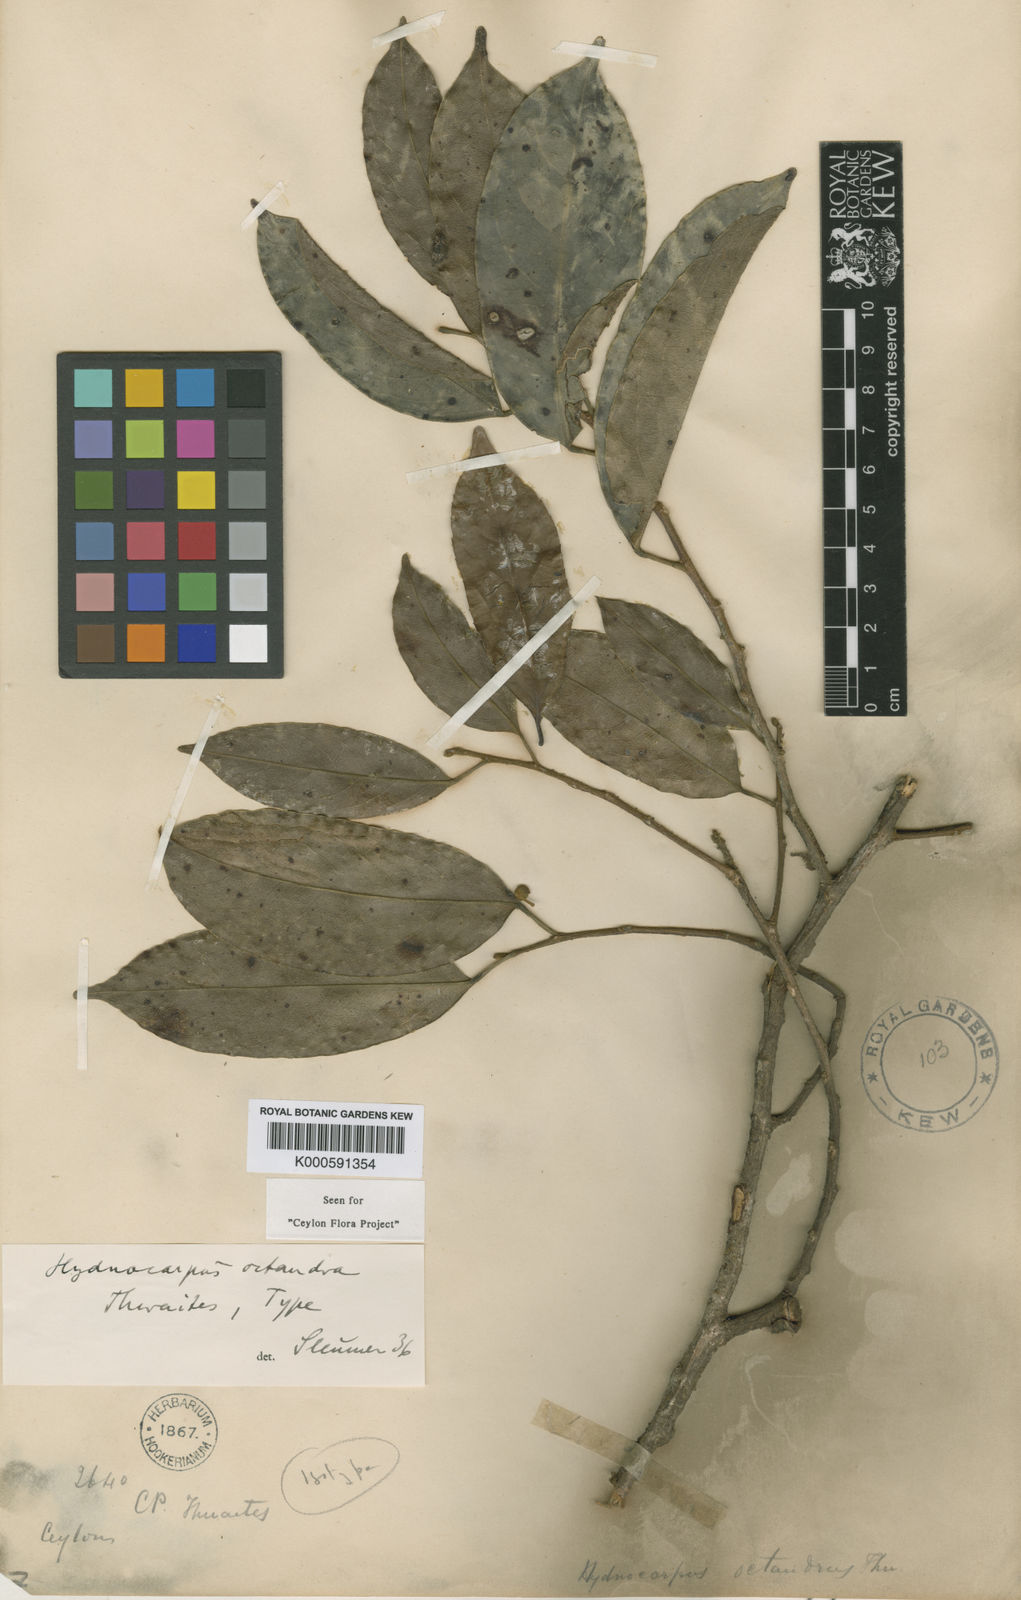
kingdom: Plantae
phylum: Tracheophyta
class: Magnoliopsida
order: Malpighiales
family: Achariaceae
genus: Hydnocarpus
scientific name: Hydnocarpus octandrus
